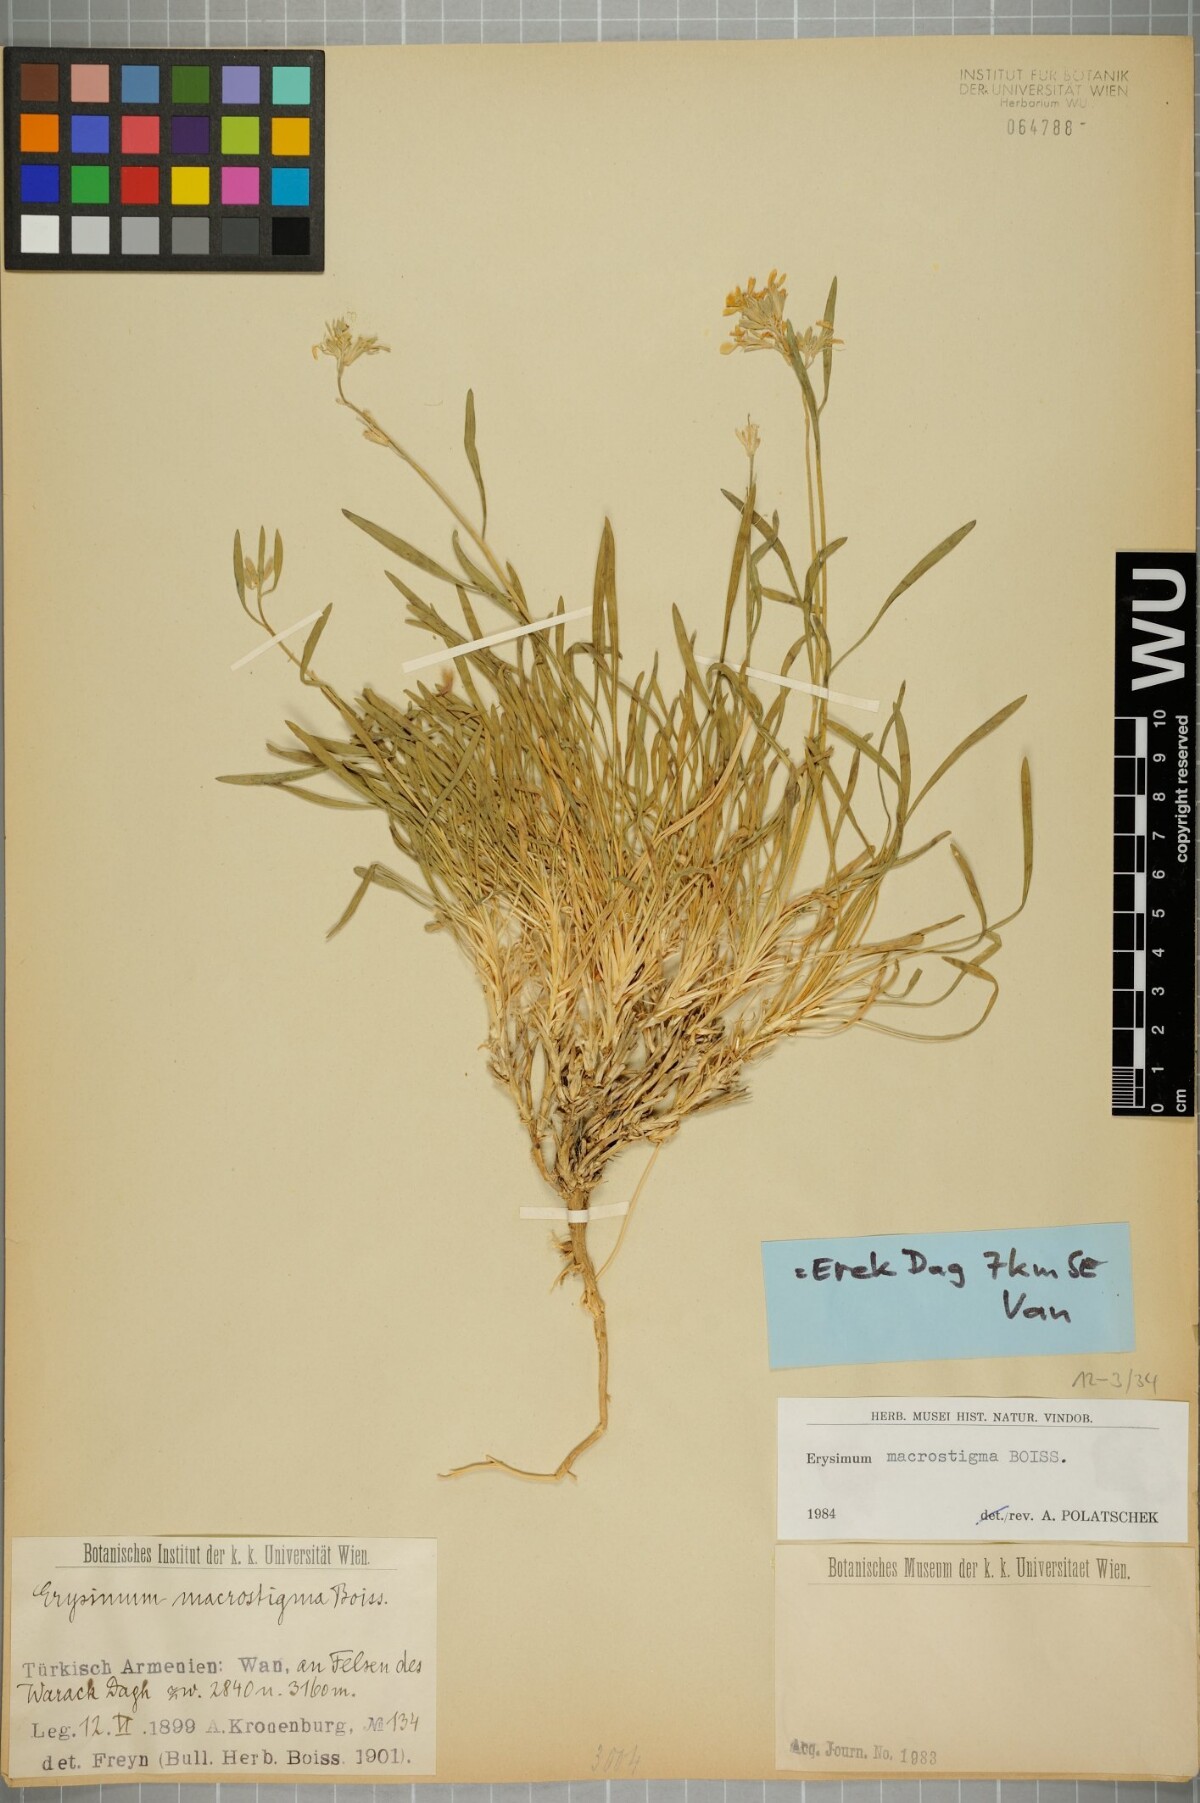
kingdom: Plantae
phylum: Tracheophyta
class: Magnoliopsida
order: Brassicales
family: Brassicaceae
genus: Erysimum
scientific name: Erysimum macrostigma
